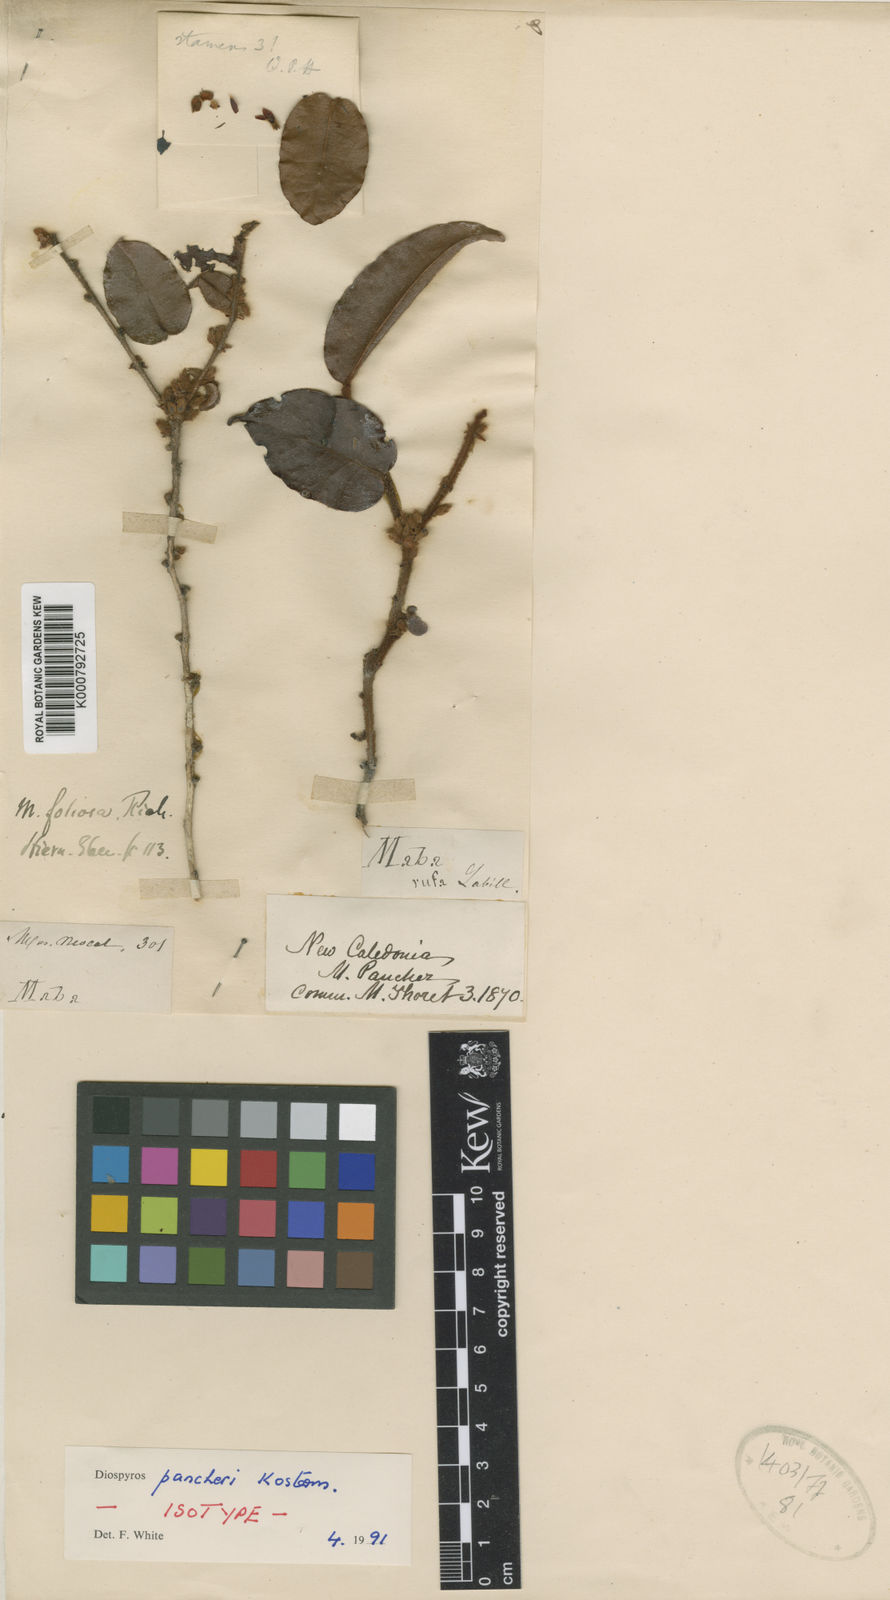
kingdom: Plantae
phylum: Tracheophyta
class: Magnoliopsida
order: Ericales
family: Ebenaceae
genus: Diospyros
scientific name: Diospyros pancheri
